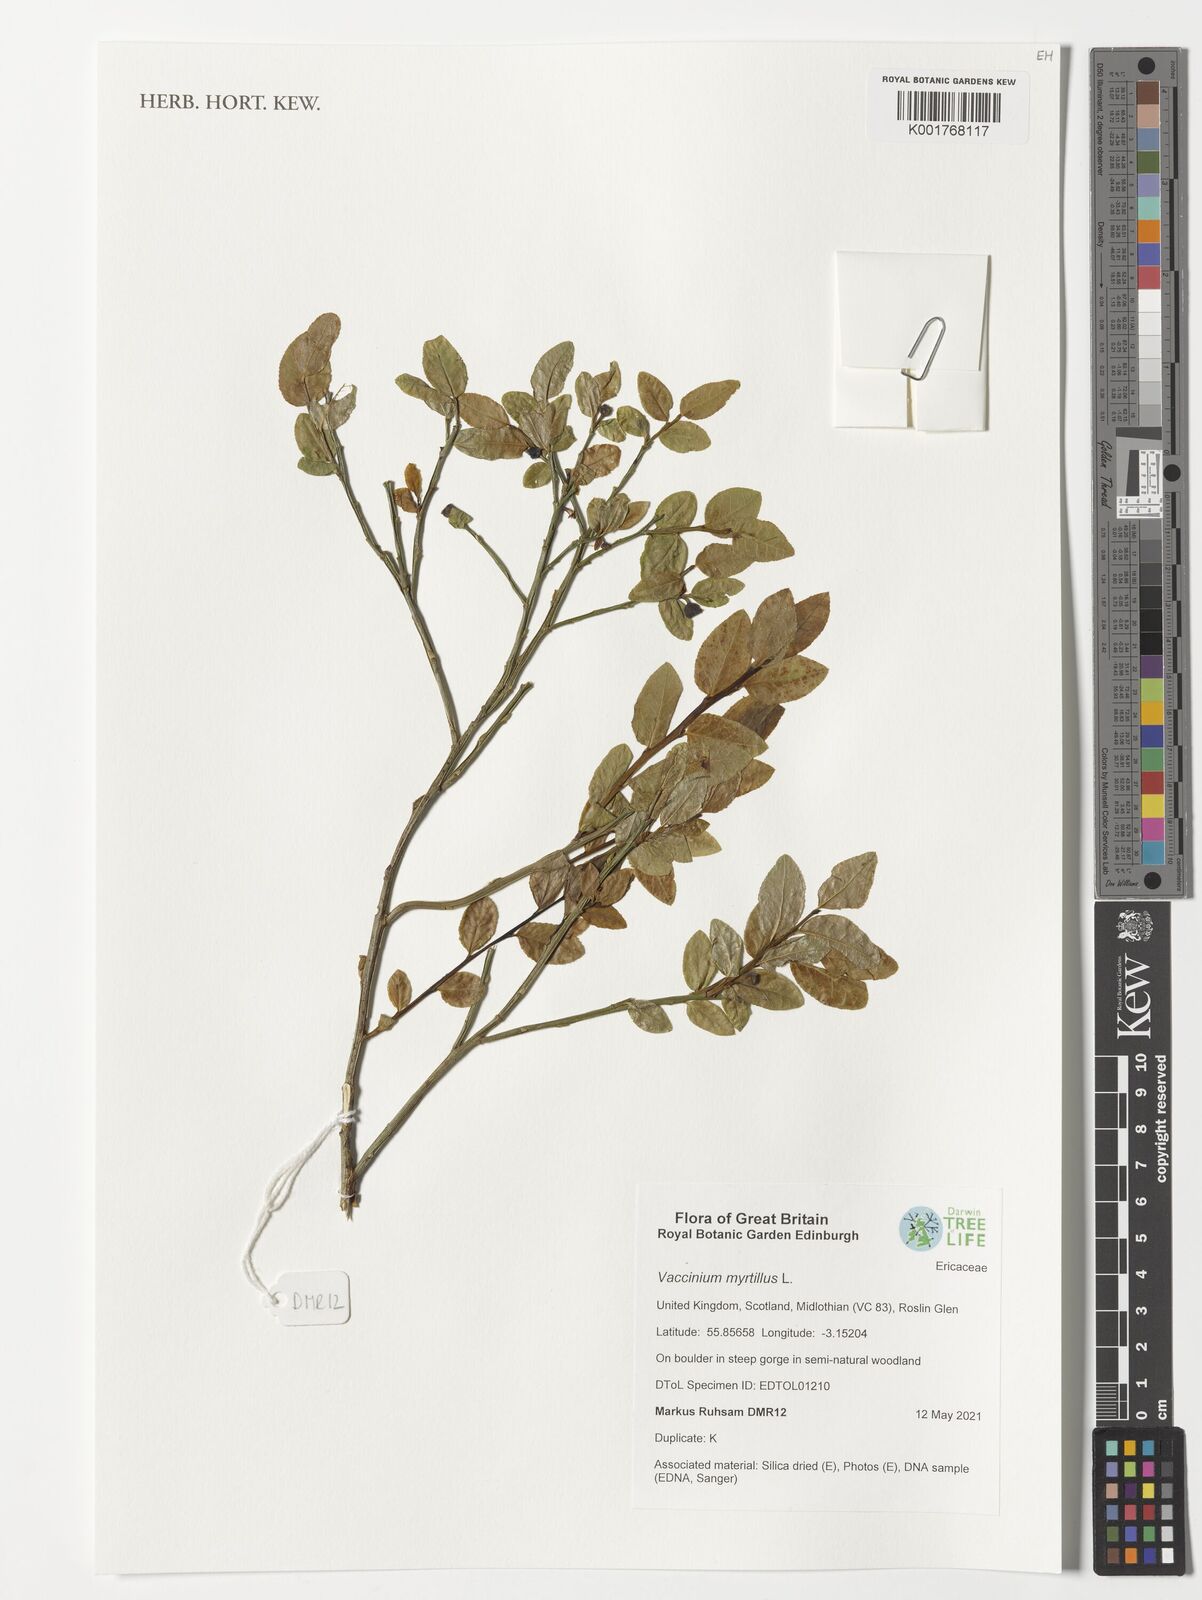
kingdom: Plantae
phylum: Tracheophyta
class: Magnoliopsida
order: Ericales
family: Ericaceae
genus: Vaccinium
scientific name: Vaccinium myrtillus
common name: Bilberry
